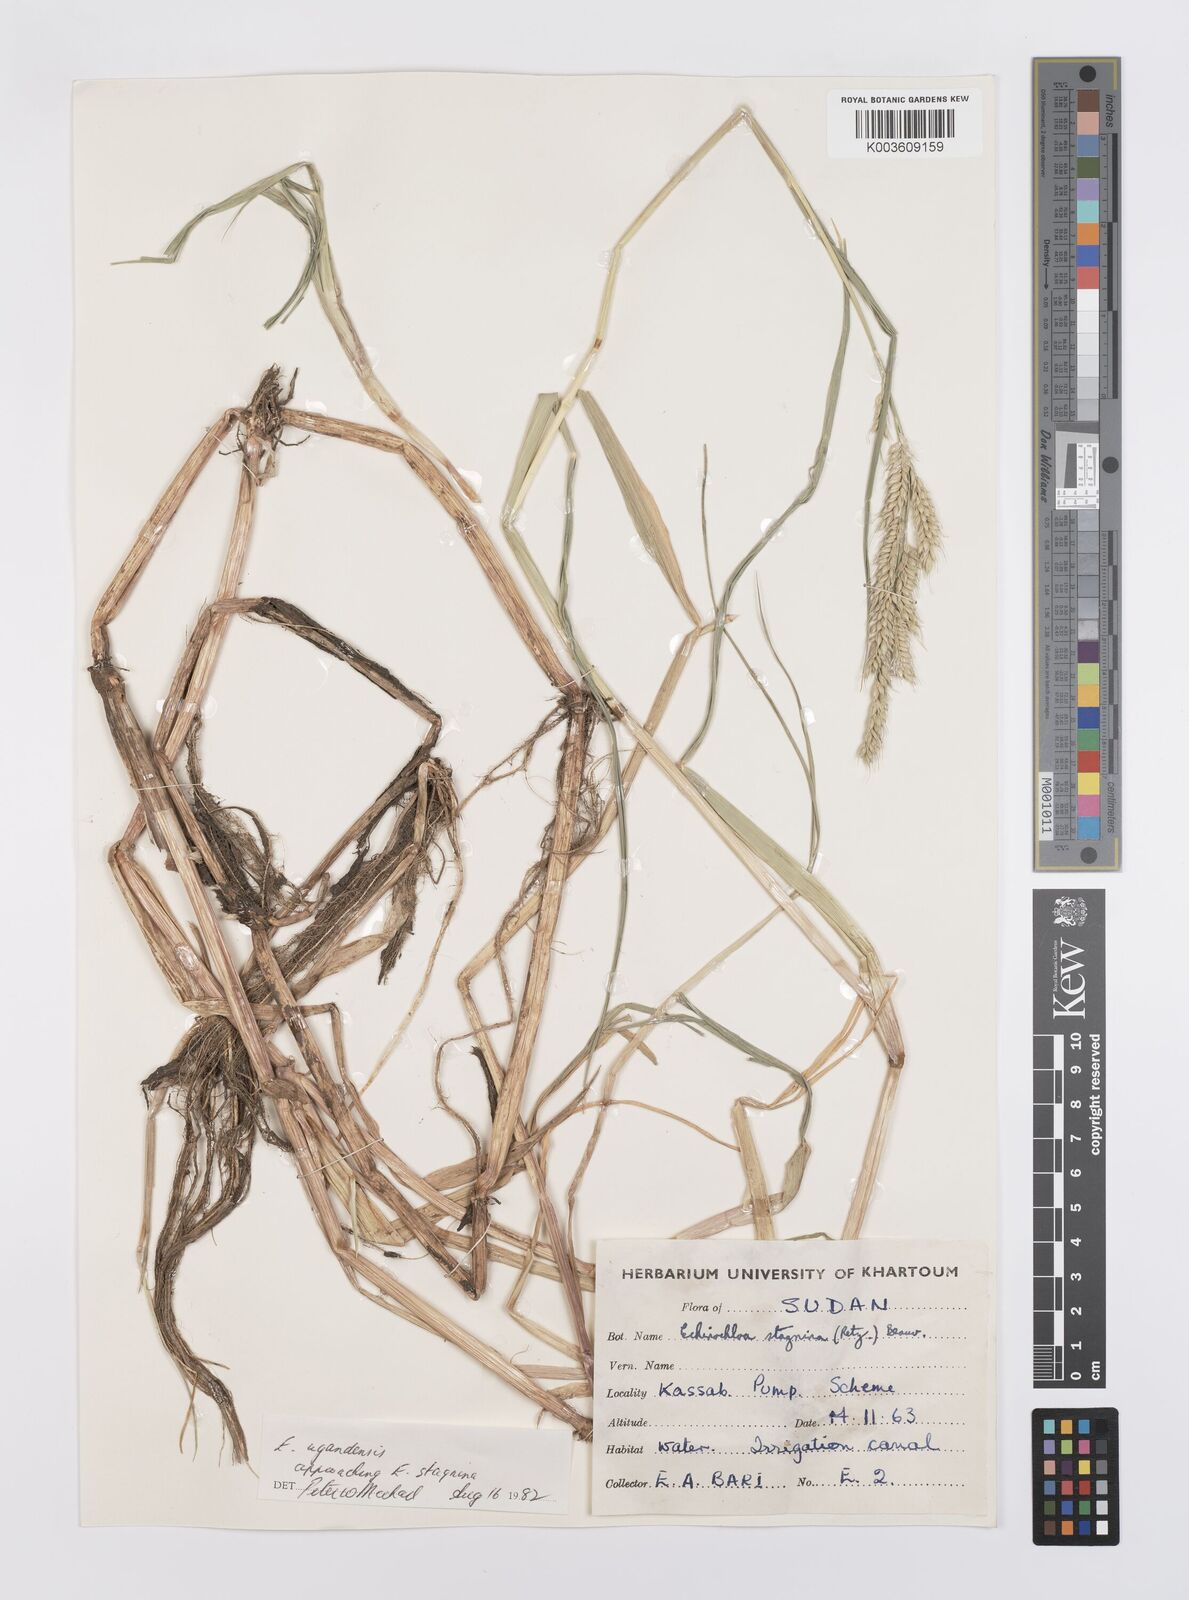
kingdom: Plantae
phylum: Tracheophyta
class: Liliopsida
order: Poales
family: Poaceae
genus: Echinochloa
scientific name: Echinochloa stagnina
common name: Burgu grass
